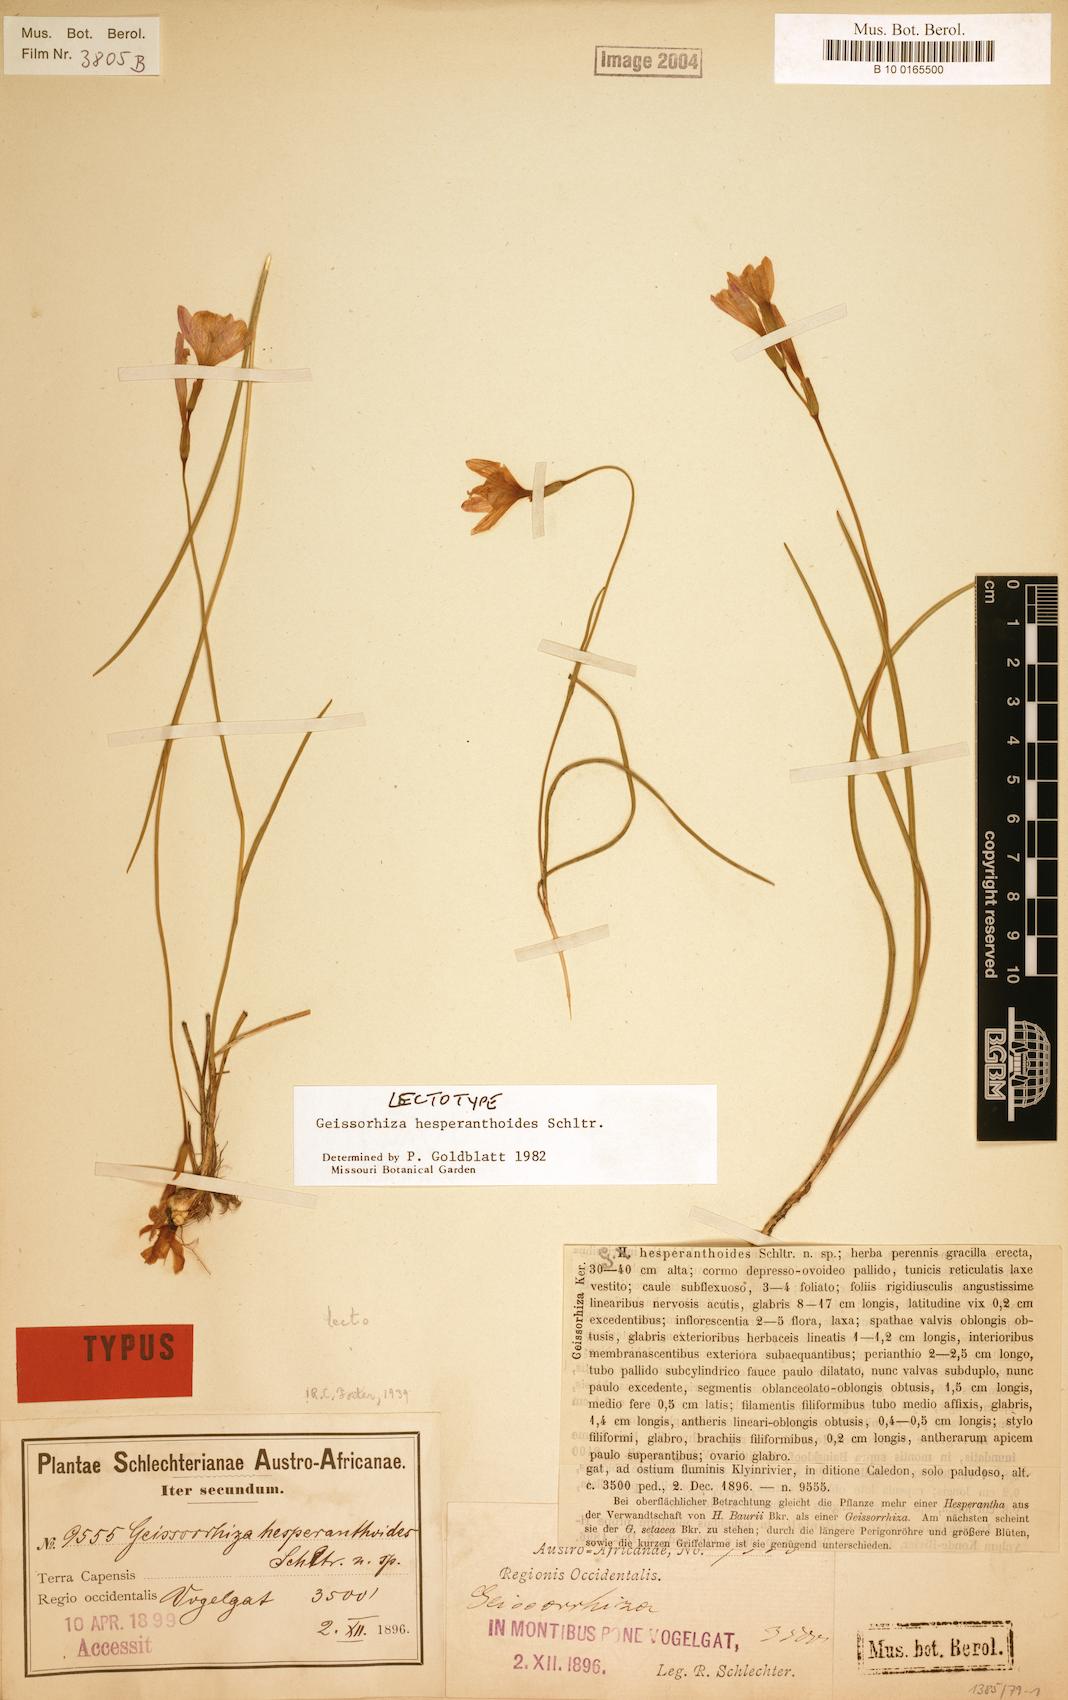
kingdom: Plantae
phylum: Tracheophyta
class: Liliopsida
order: Asparagales
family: Iridaceae
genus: Geissorhiza
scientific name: Geissorhiza hesperanthoides
